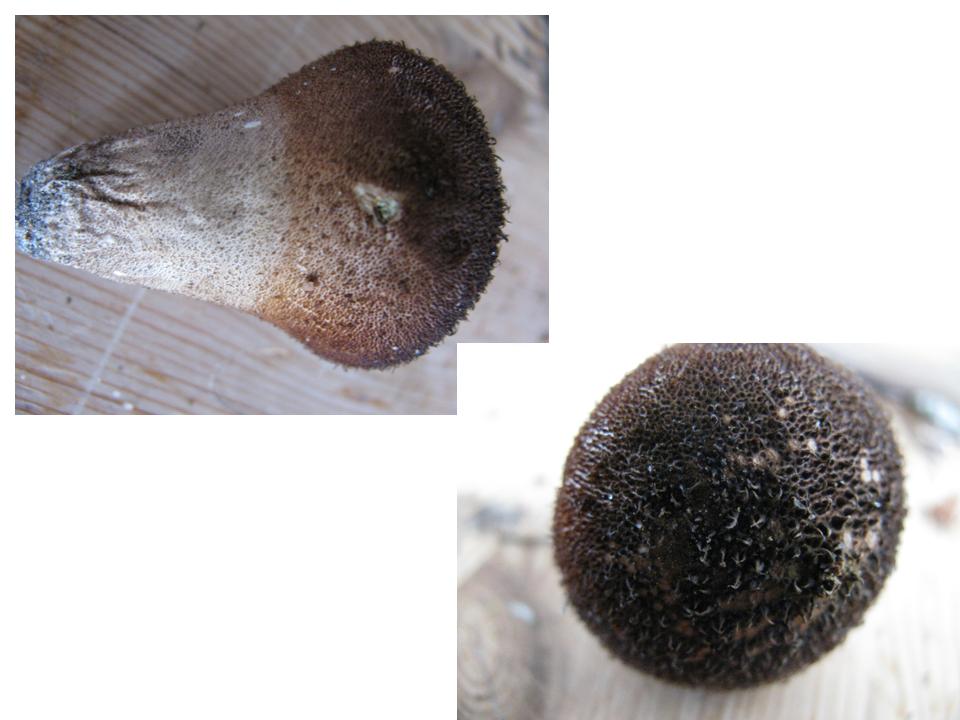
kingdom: Fungi
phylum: Basidiomycota
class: Agaricomycetes
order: Agaricales
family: Lycoperdaceae
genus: Lycoperdon
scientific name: Lycoperdon nigrescens
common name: sortagtig støvbold
